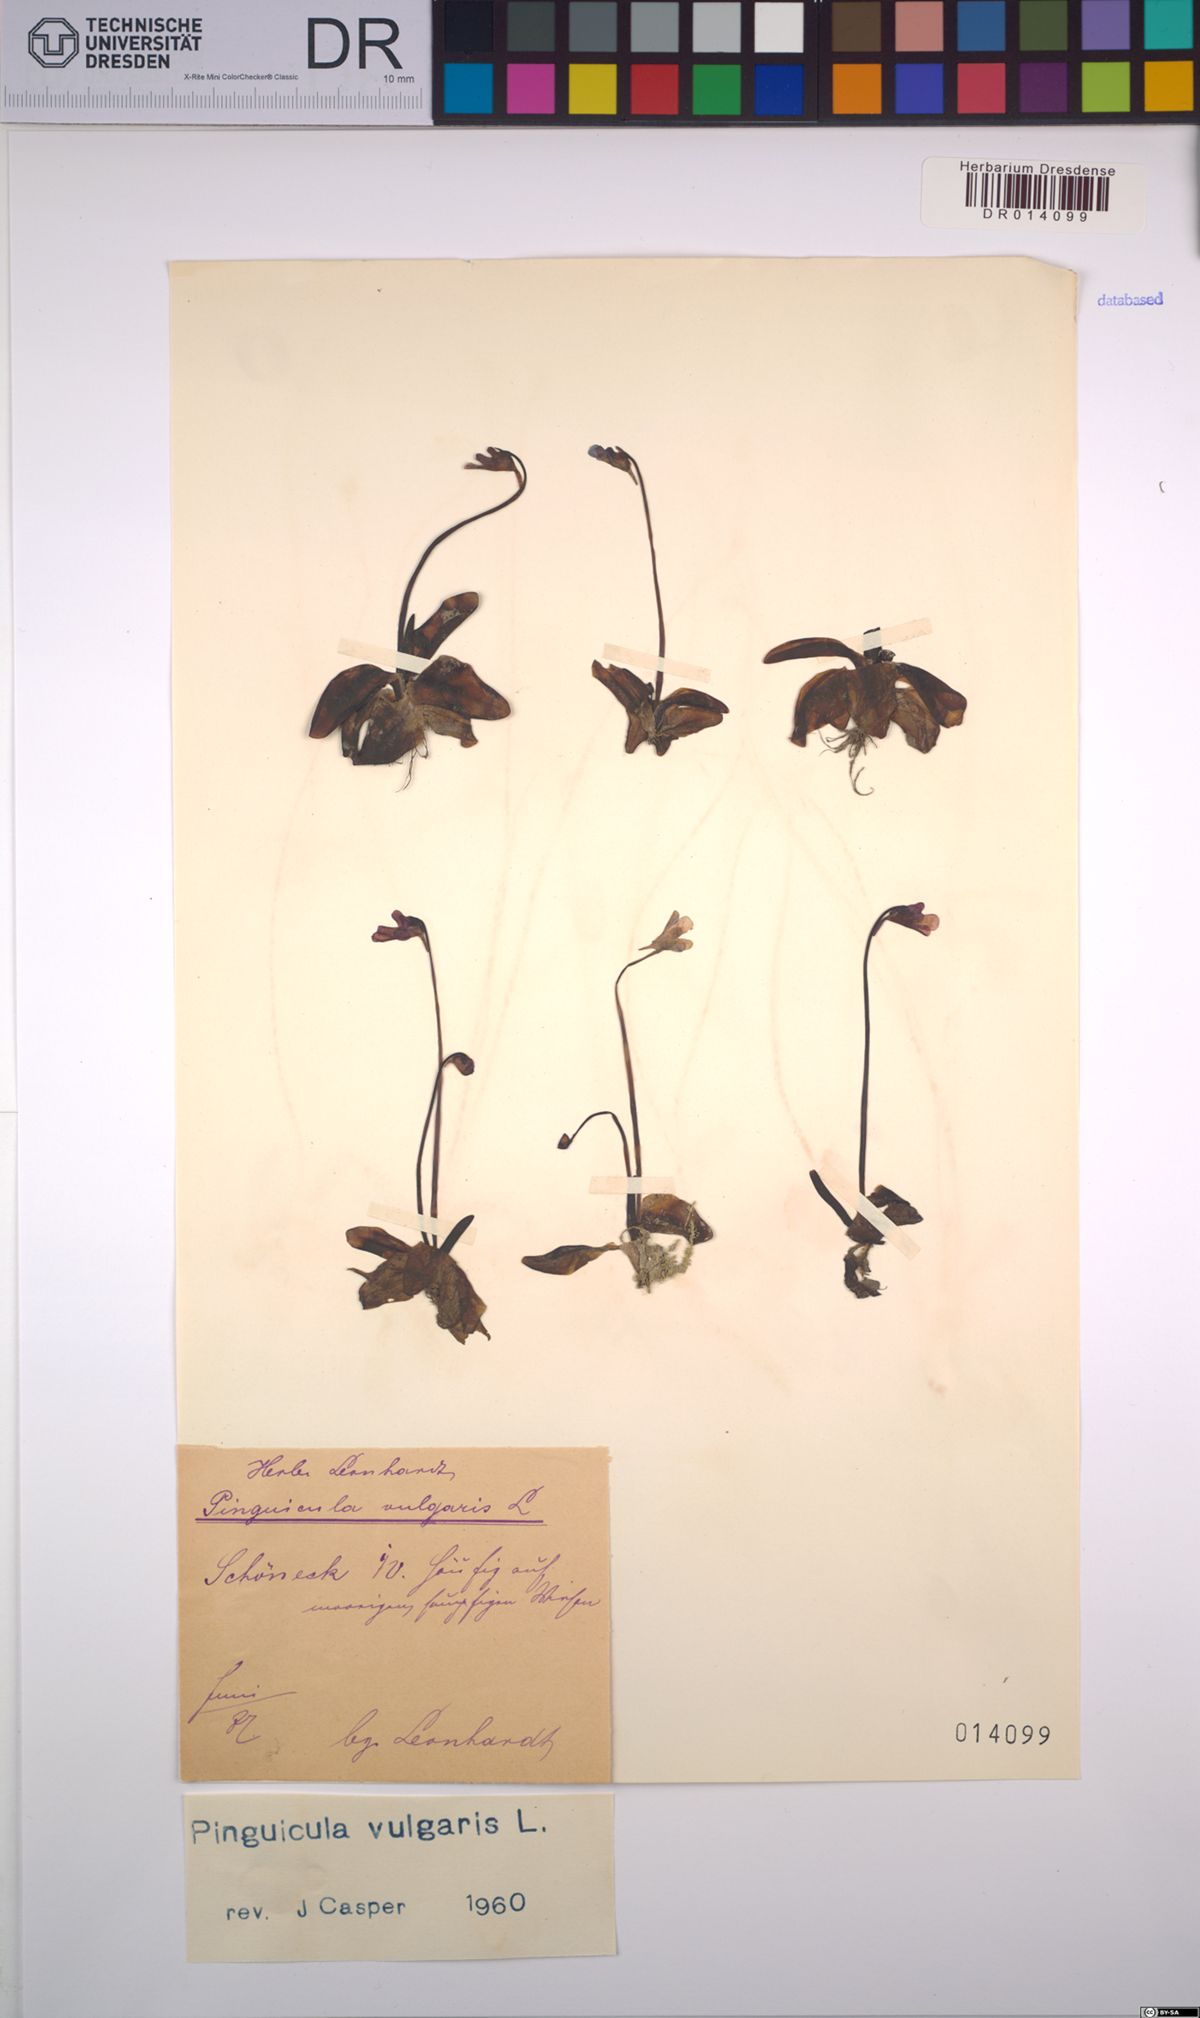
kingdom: Plantae
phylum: Tracheophyta
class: Magnoliopsida
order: Lamiales
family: Lentibulariaceae
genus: Pinguicula
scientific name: Pinguicula vulgaris
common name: Common butterwort
